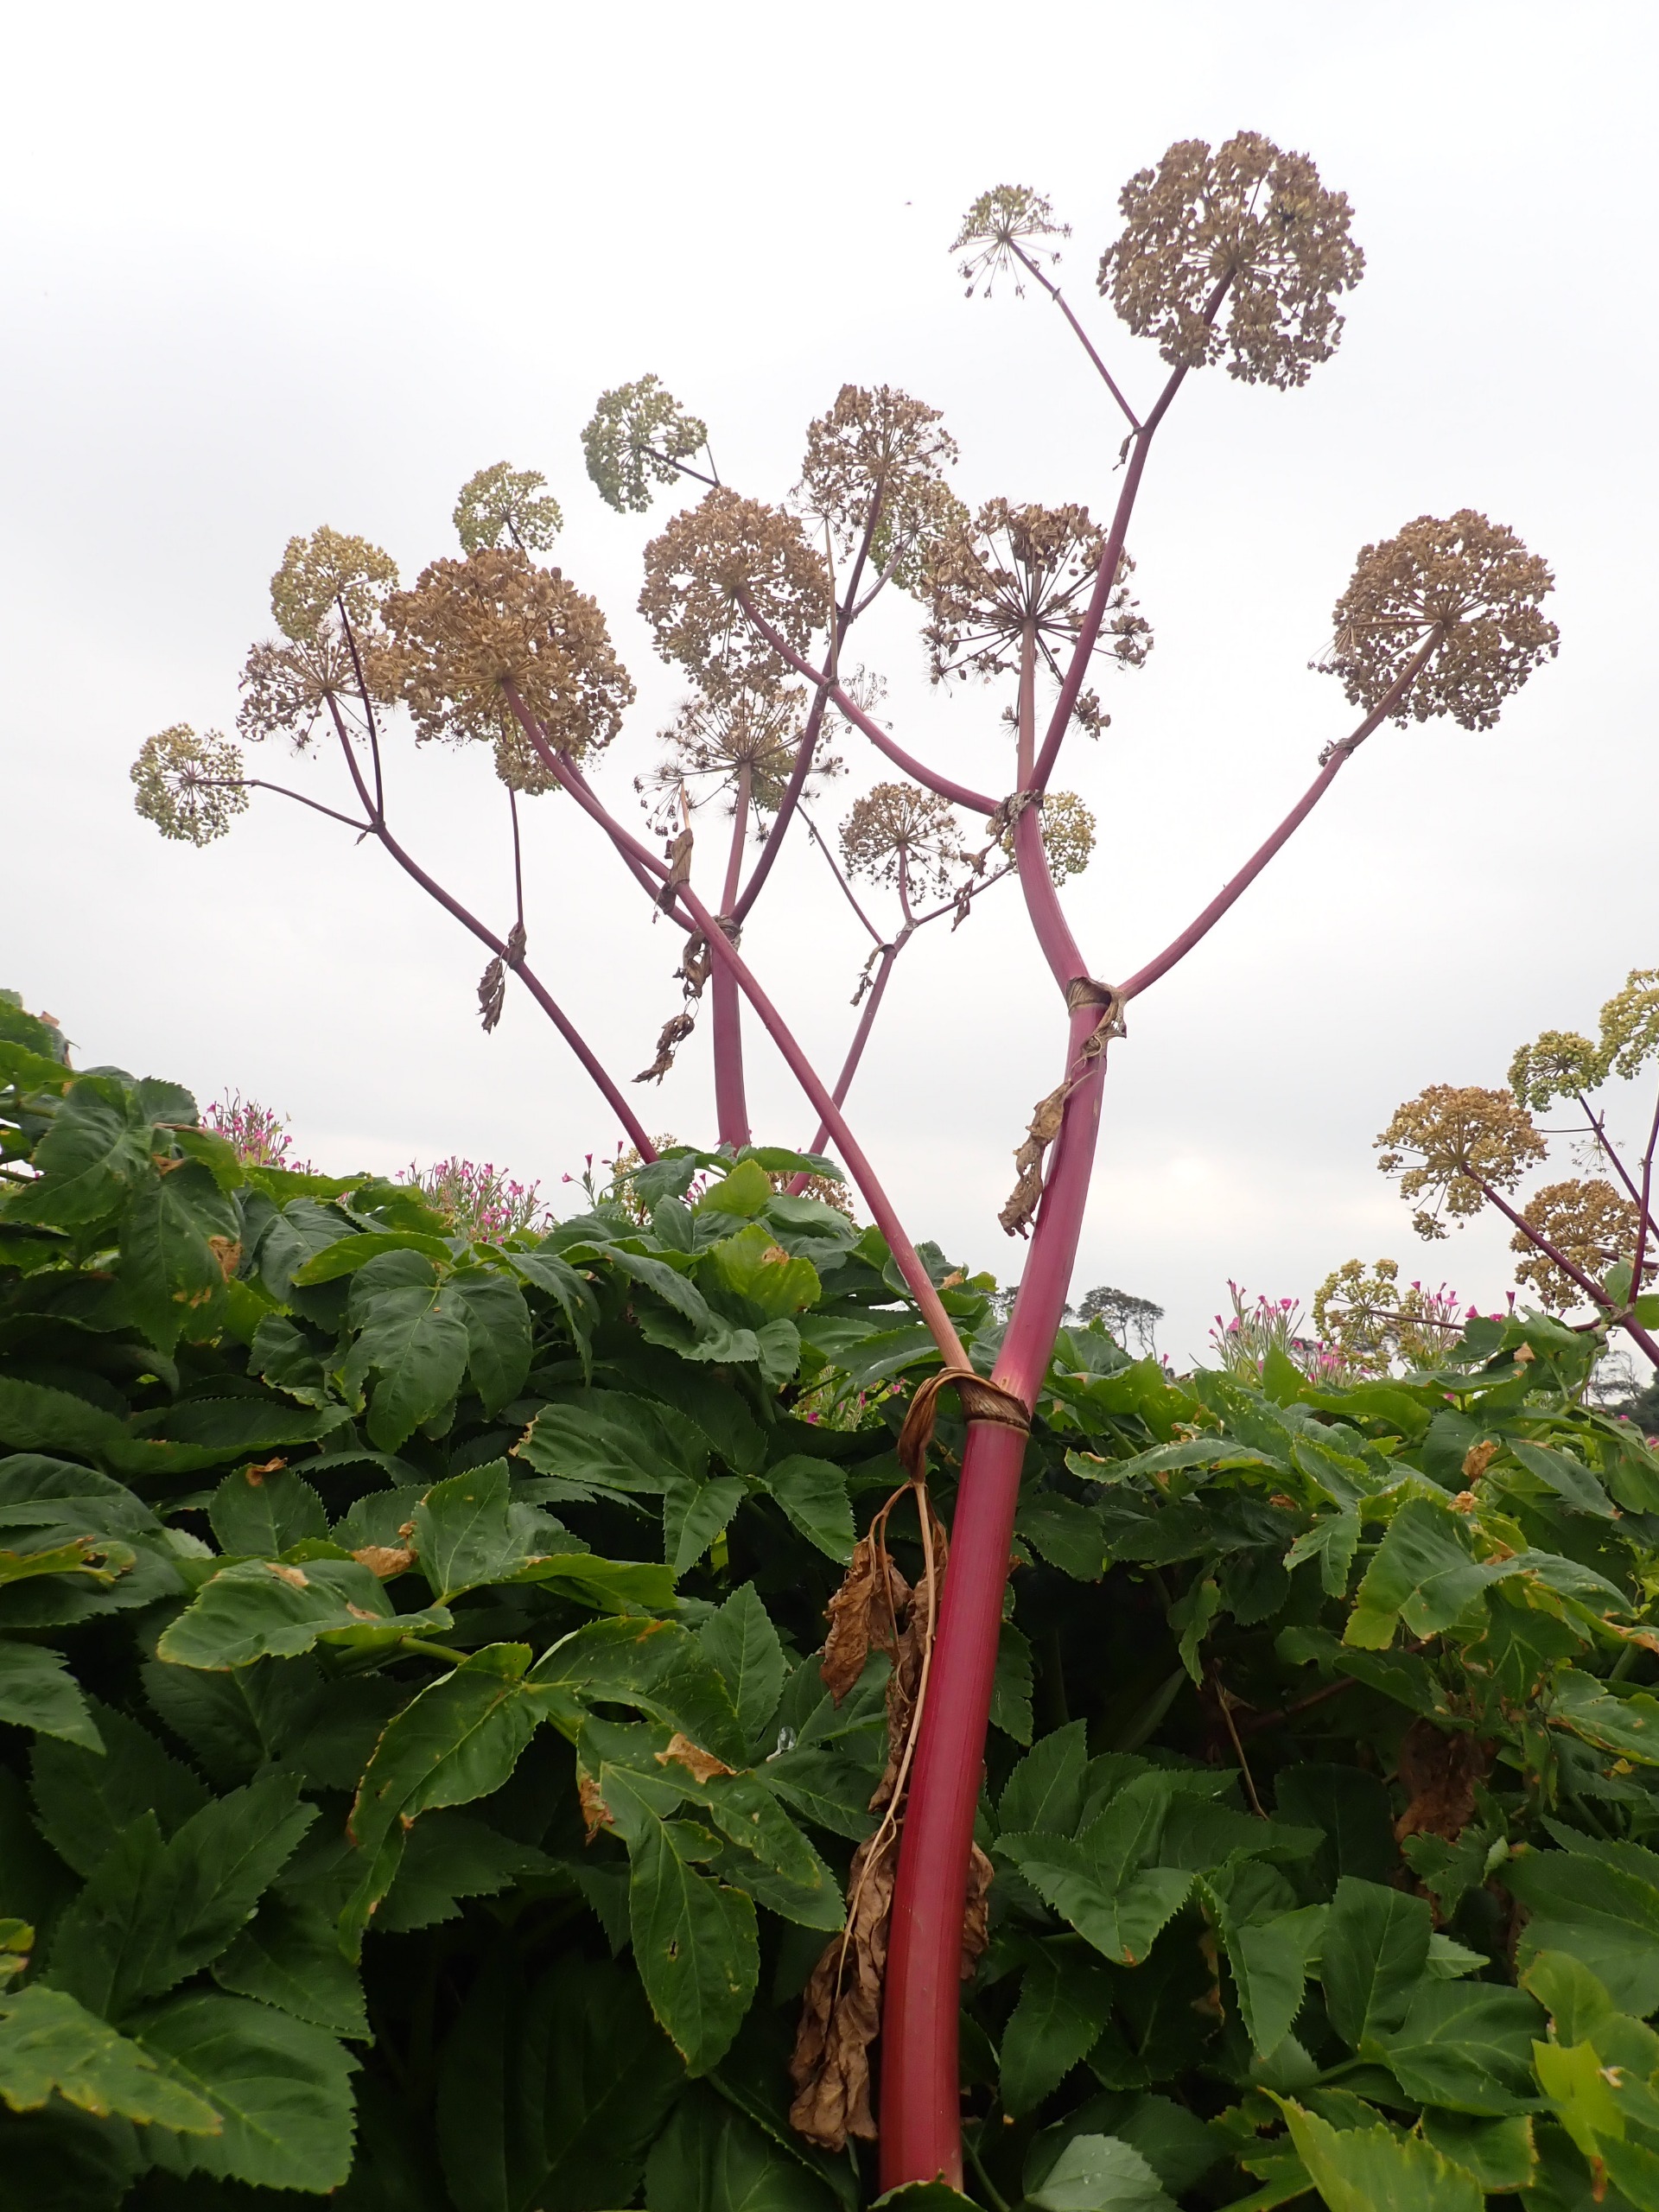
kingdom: Plantae
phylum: Tracheophyta
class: Magnoliopsida
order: Apiales
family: Apiaceae
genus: Angelica
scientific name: Angelica archangelica
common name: Kvan
